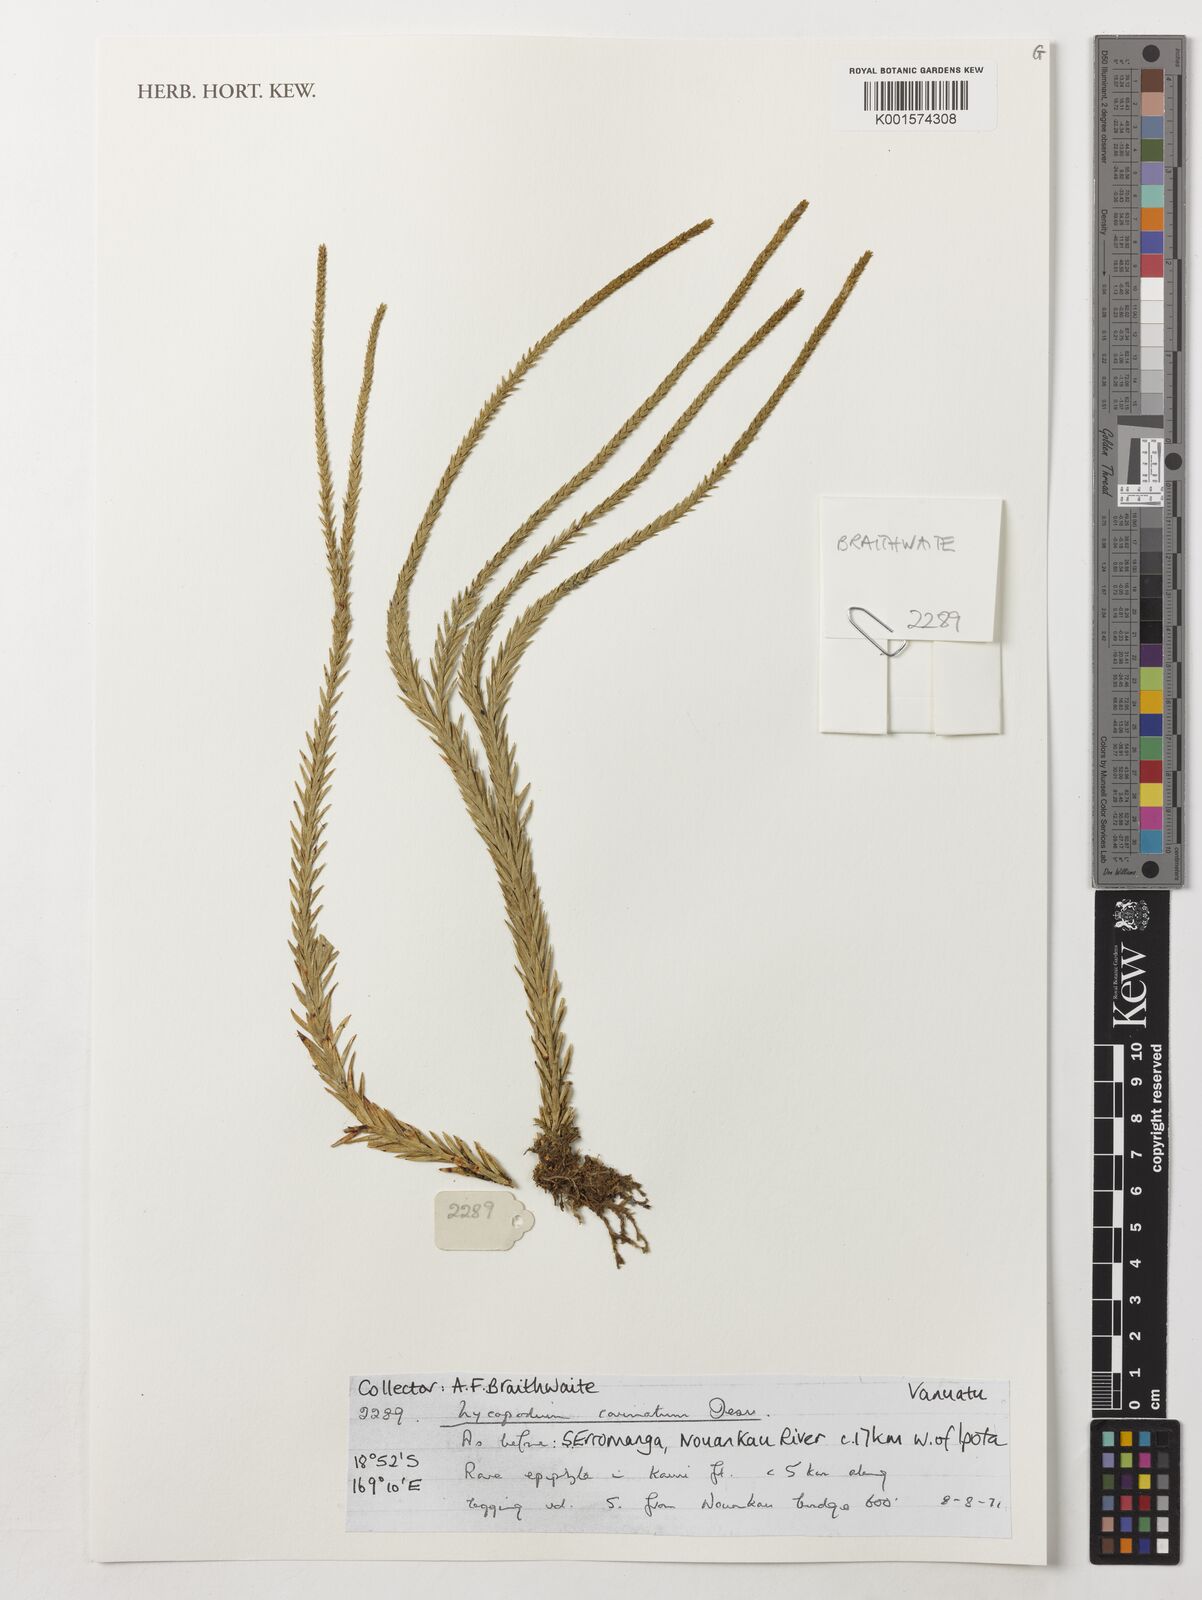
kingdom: Plantae
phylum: Tracheophyta
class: Lycopodiopsida
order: Lycopodiales
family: Lycopodiaceae
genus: Phlegmariurus
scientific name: Phlegmariurus carinatus
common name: Keeled tassel-fern
